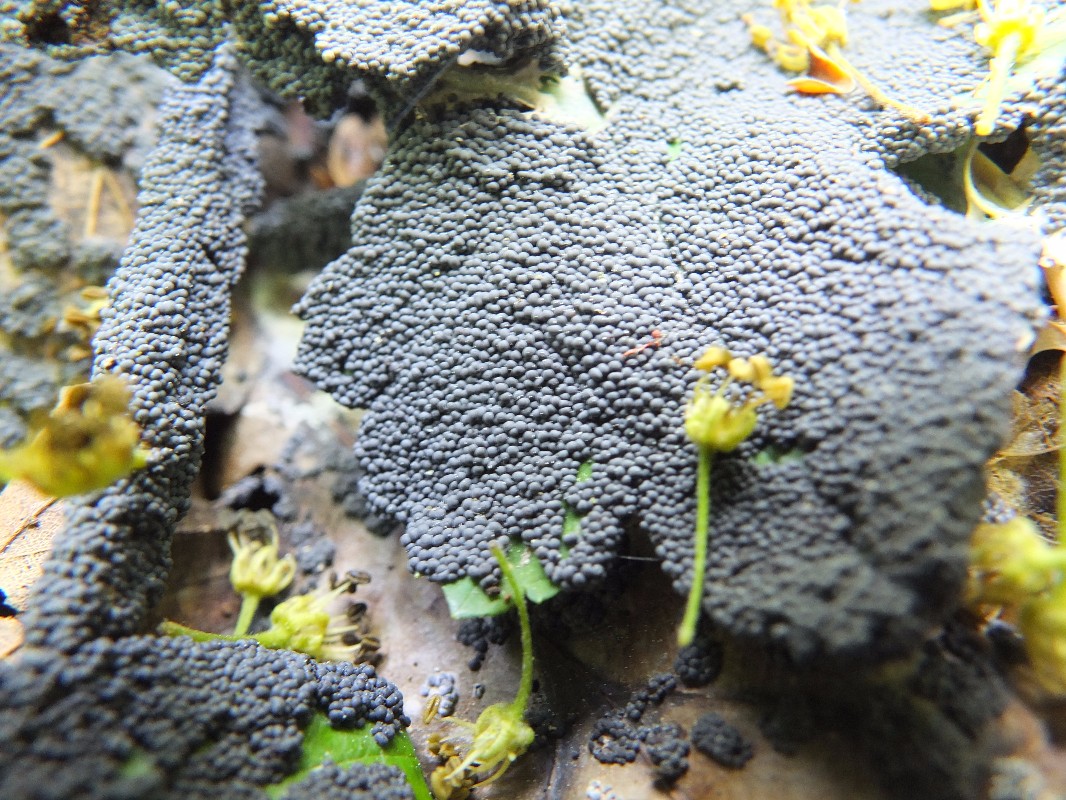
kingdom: Protozoa
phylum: Mycetozoa
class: Myxomycetes
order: Physarales
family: Didymiaceae
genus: Diderma
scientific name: Diderma spumarioides
